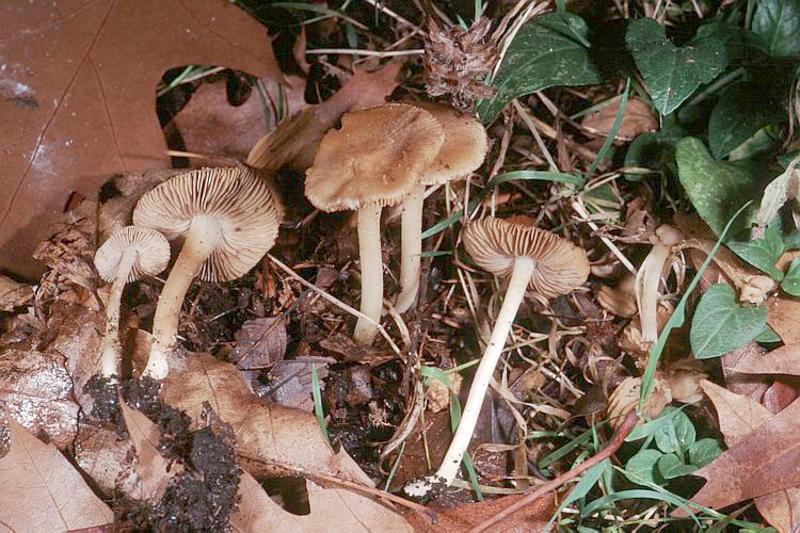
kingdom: Fungi
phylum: Basidiomycota
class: Agaricomycetes
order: Agaricales
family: Inocybaceae
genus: Inocybe
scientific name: Inocybe hirtella
